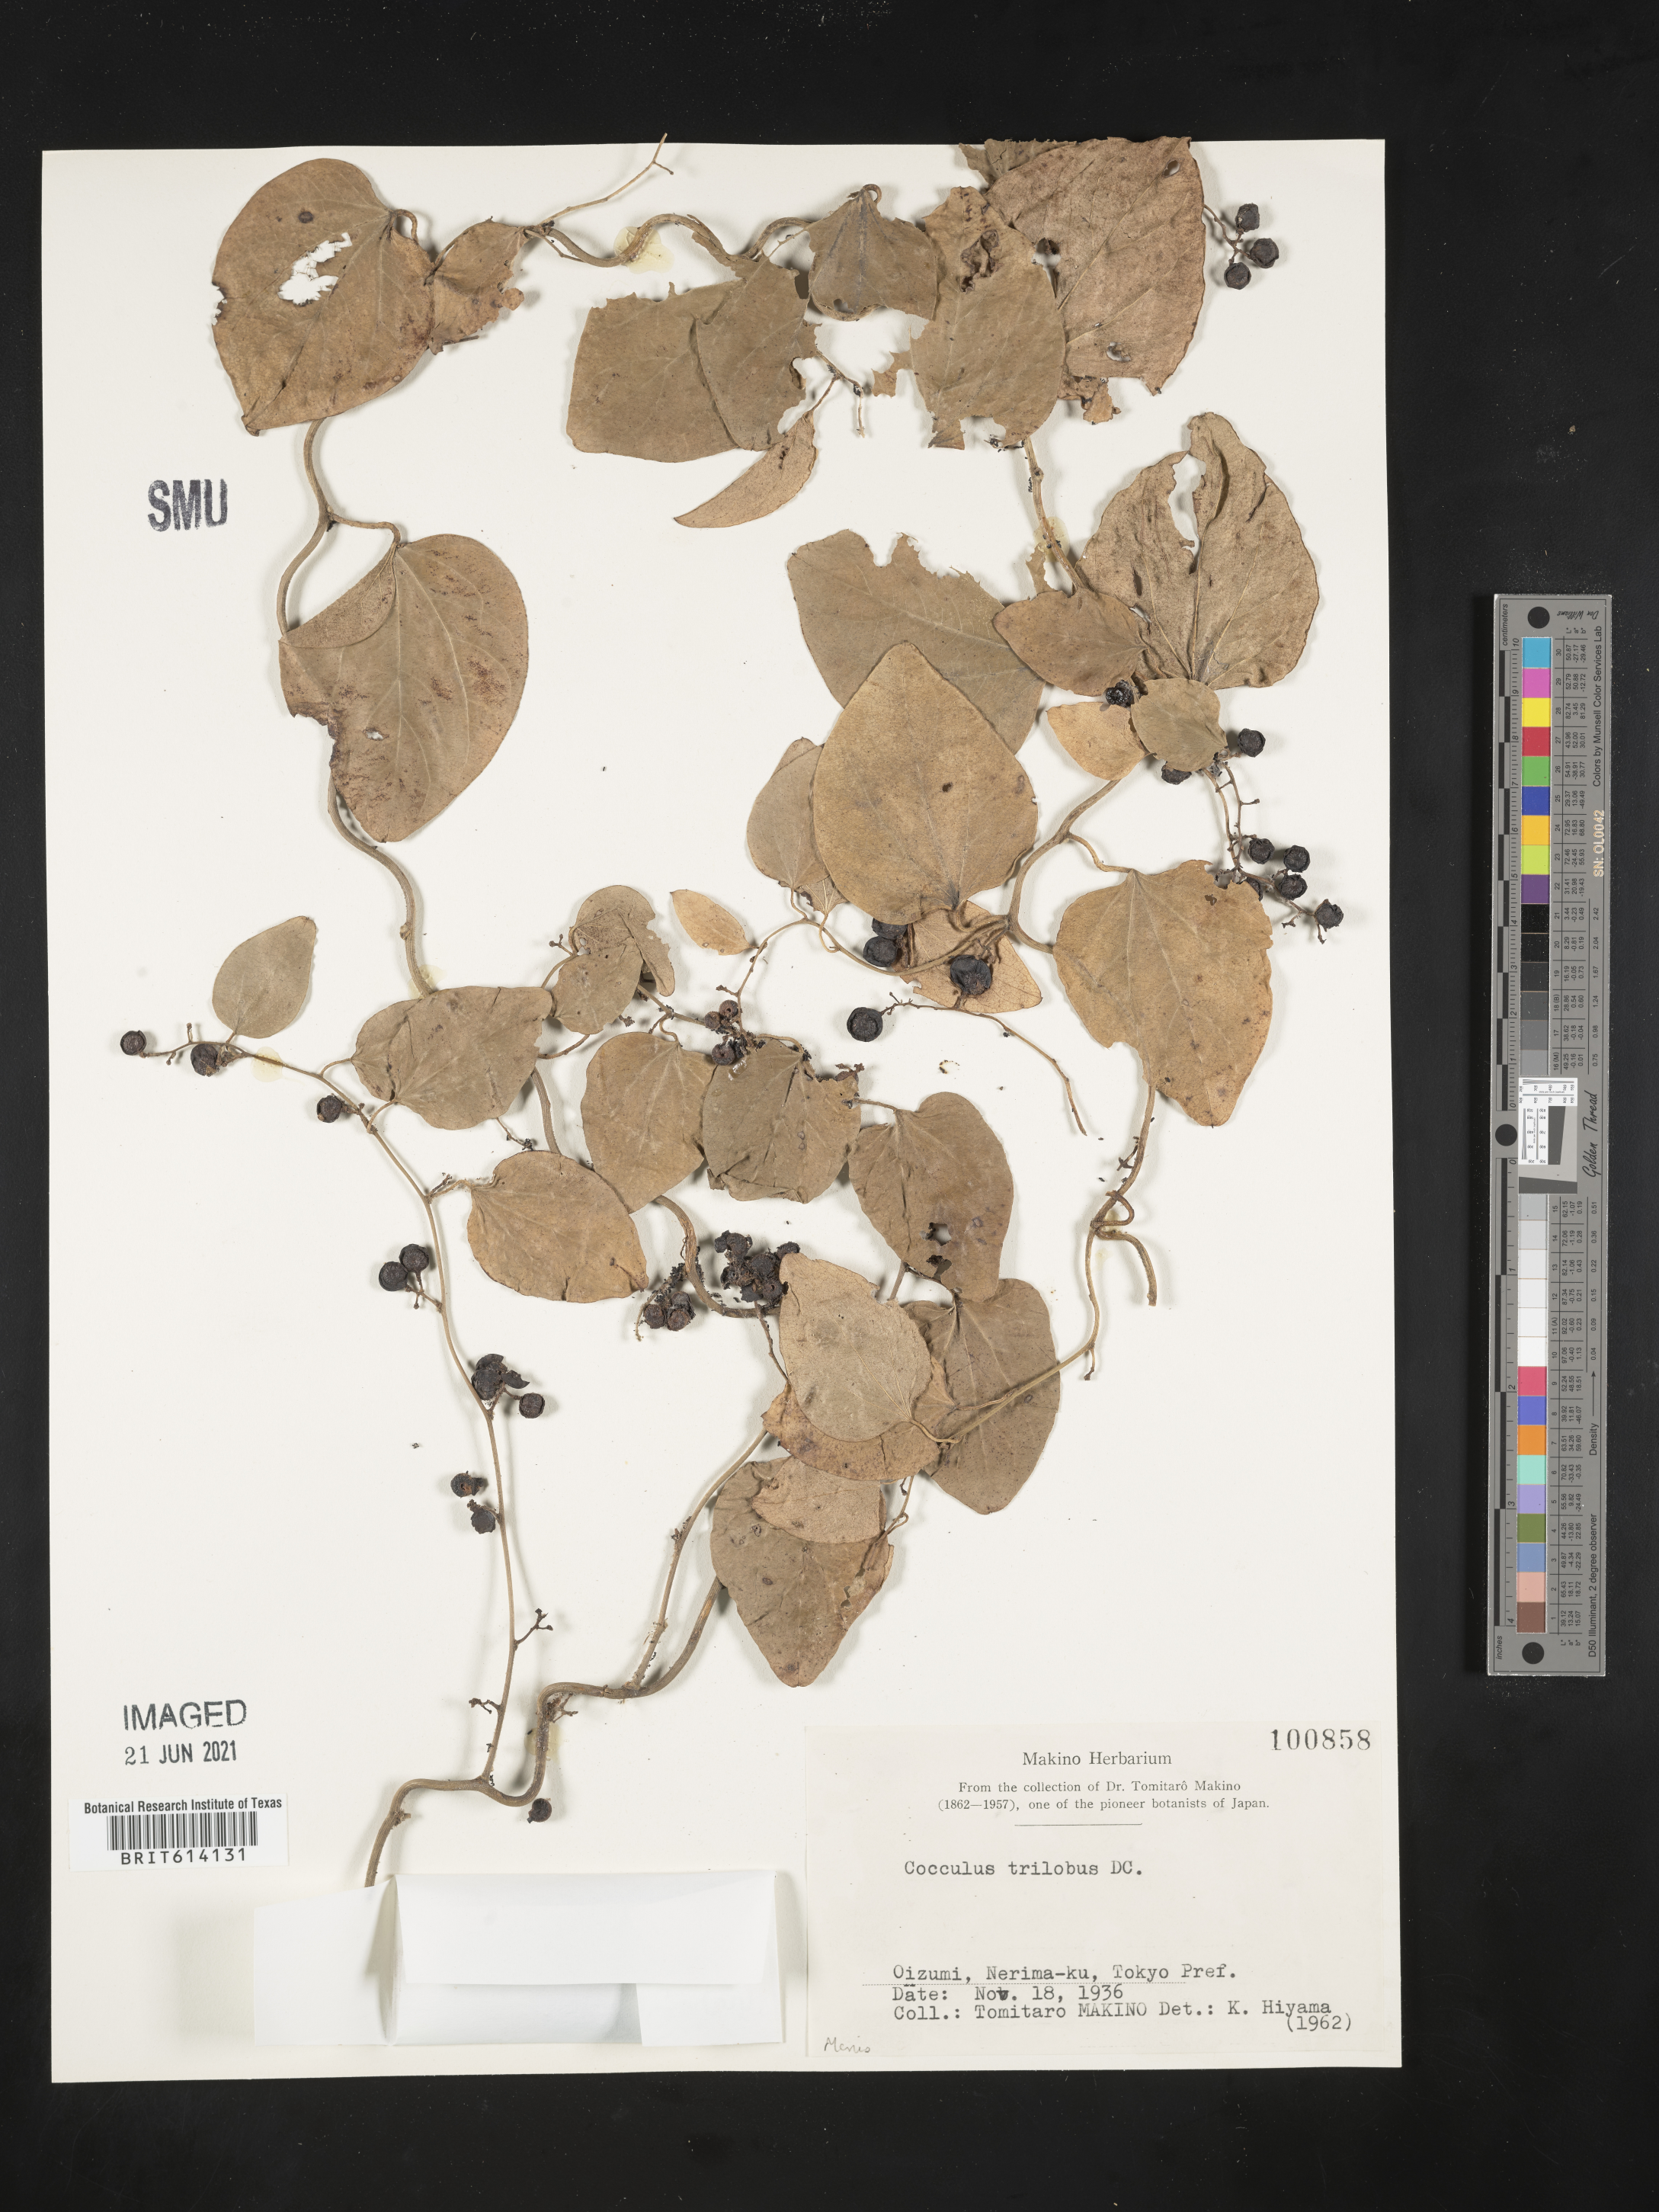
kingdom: Plantae
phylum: Tracheophyta
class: Magnoliopsida
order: Ranunculales
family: Menispermaceae
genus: Cocculus
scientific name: Cocculus orbiculatus
